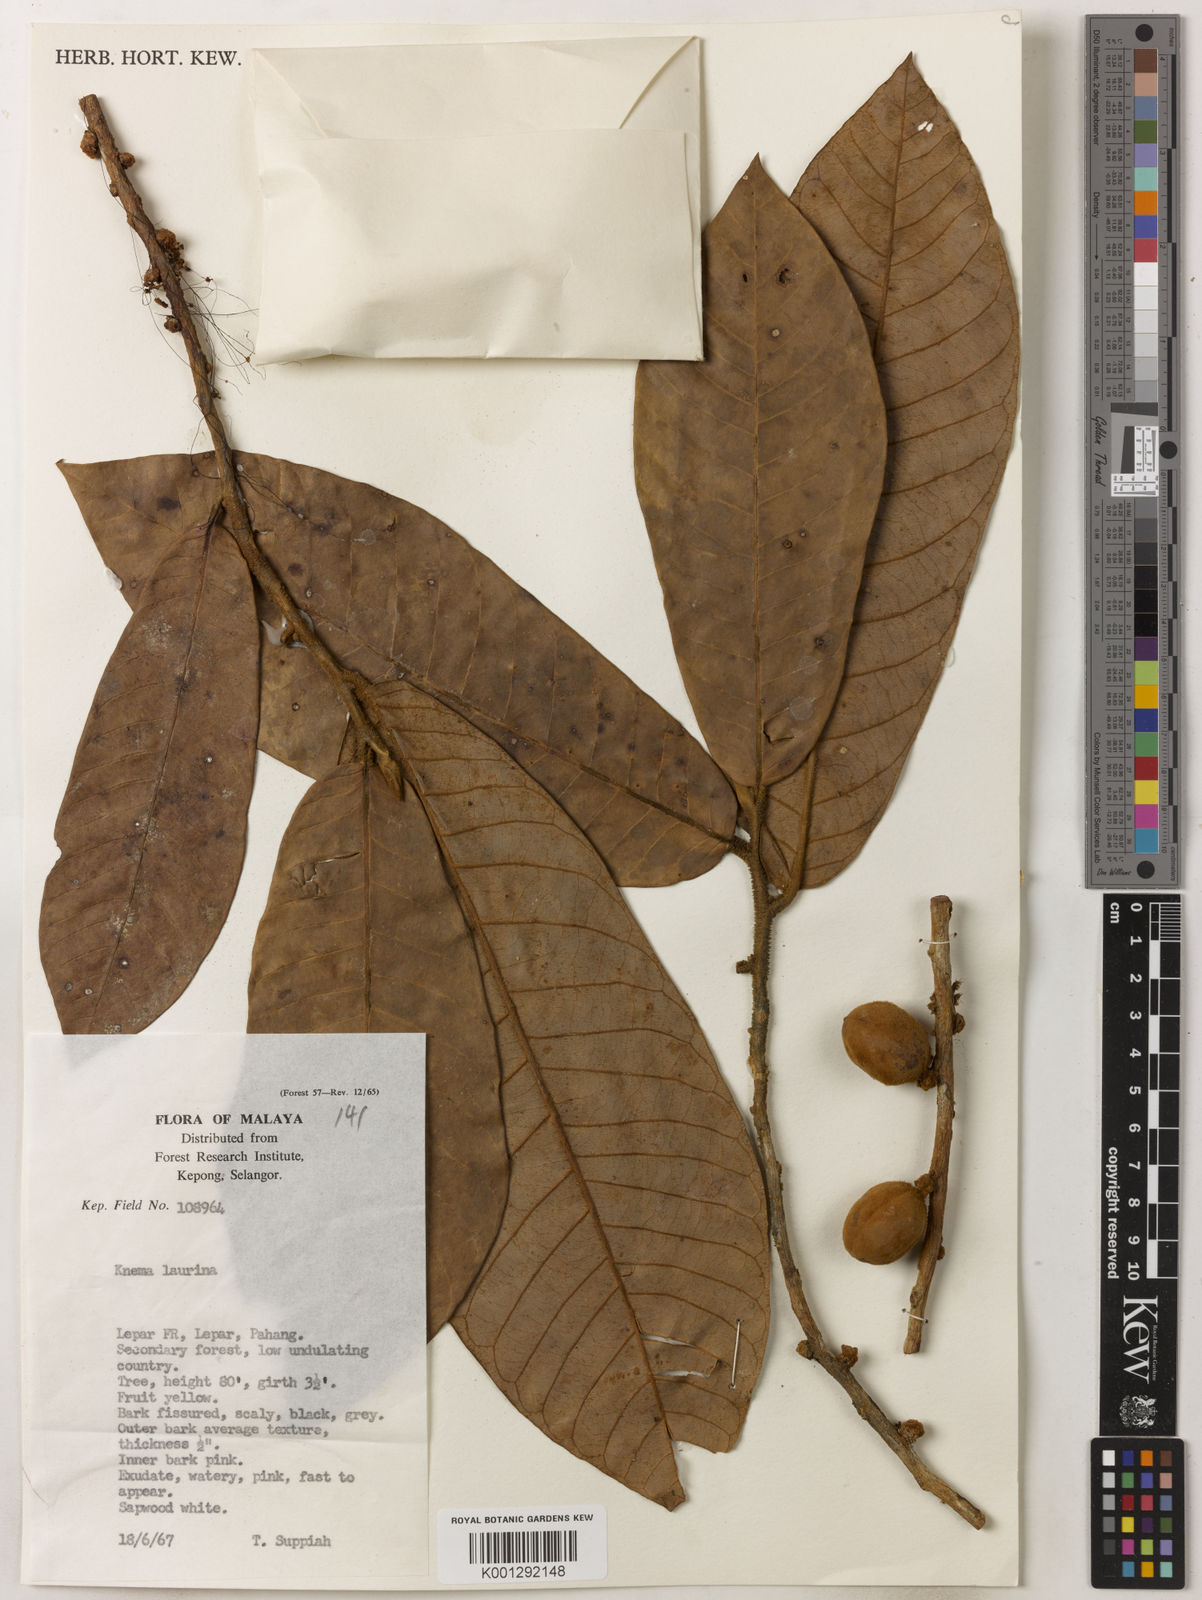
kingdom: Plantae
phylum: Tracheophyta
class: Magnoliopsida
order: Magnoliales
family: Myristicaceae
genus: Knema
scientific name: Knema laurina
